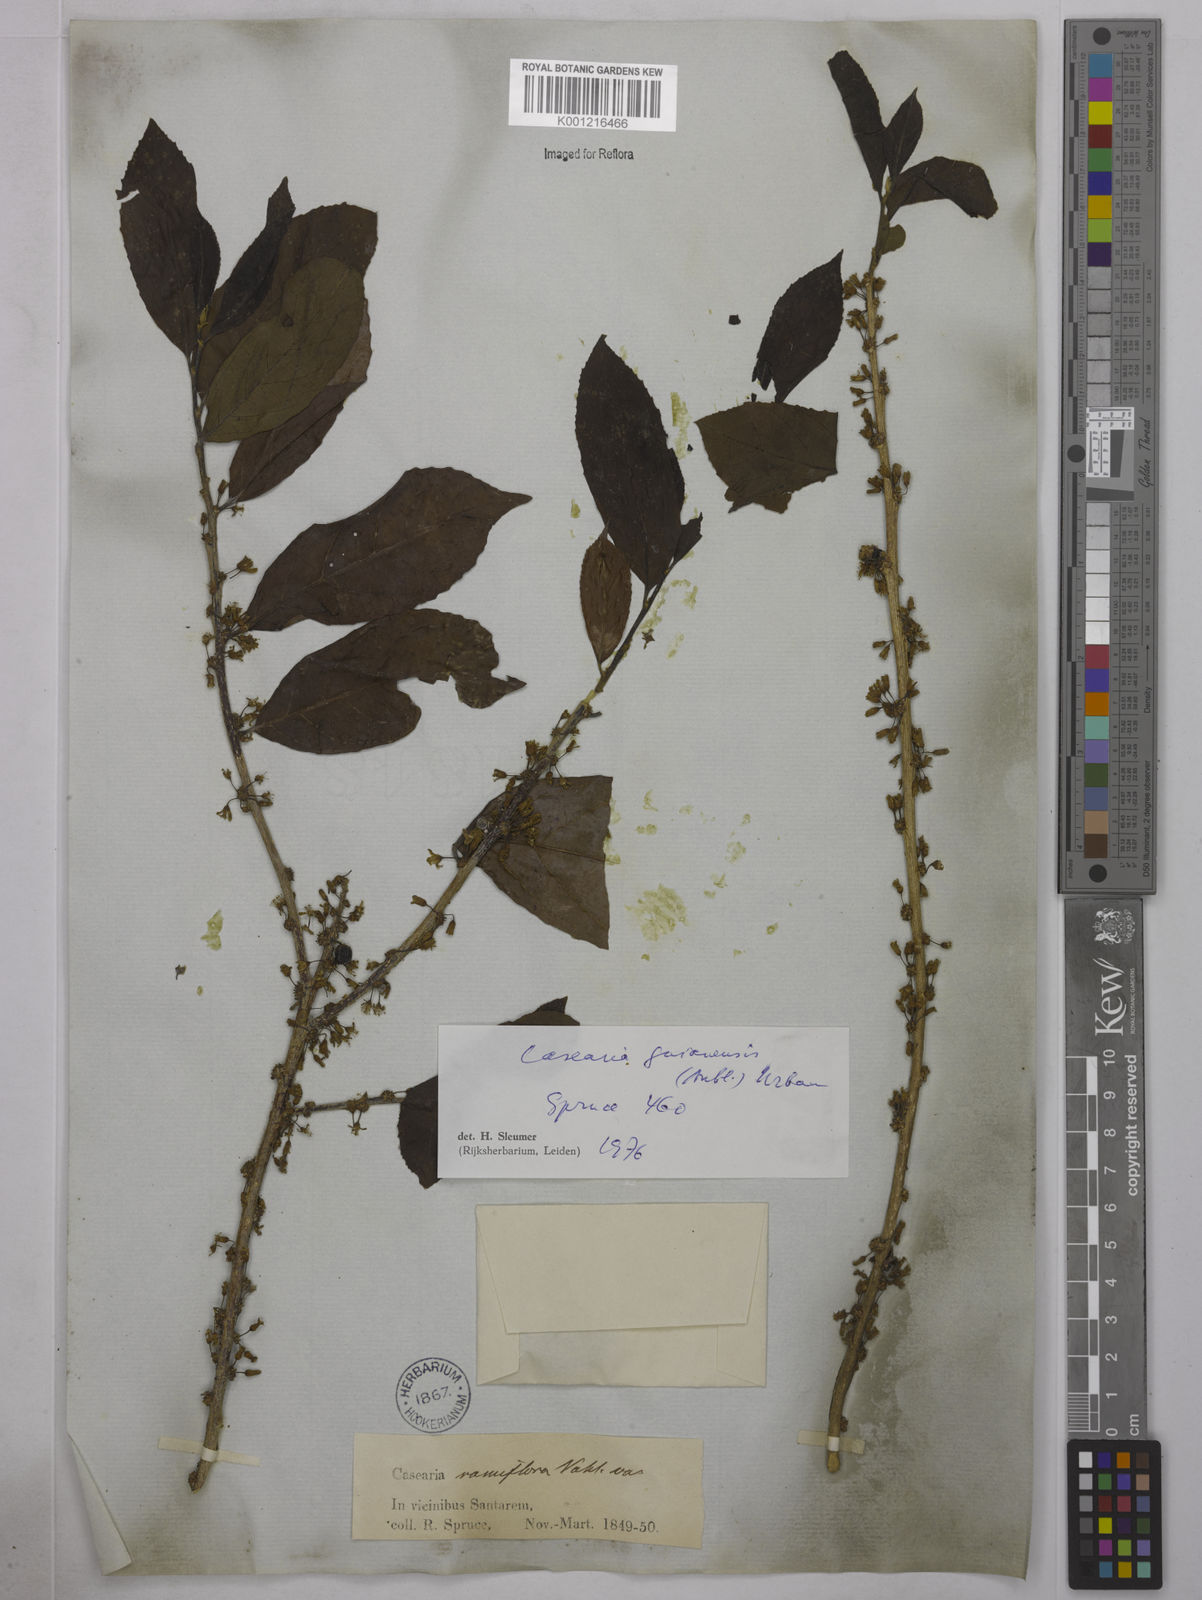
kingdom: Plantae
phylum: Tracheophyta
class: Magnoliopsida
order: Malpighiales
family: Salicaceae
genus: Casearia
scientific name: Casearia guianensis
